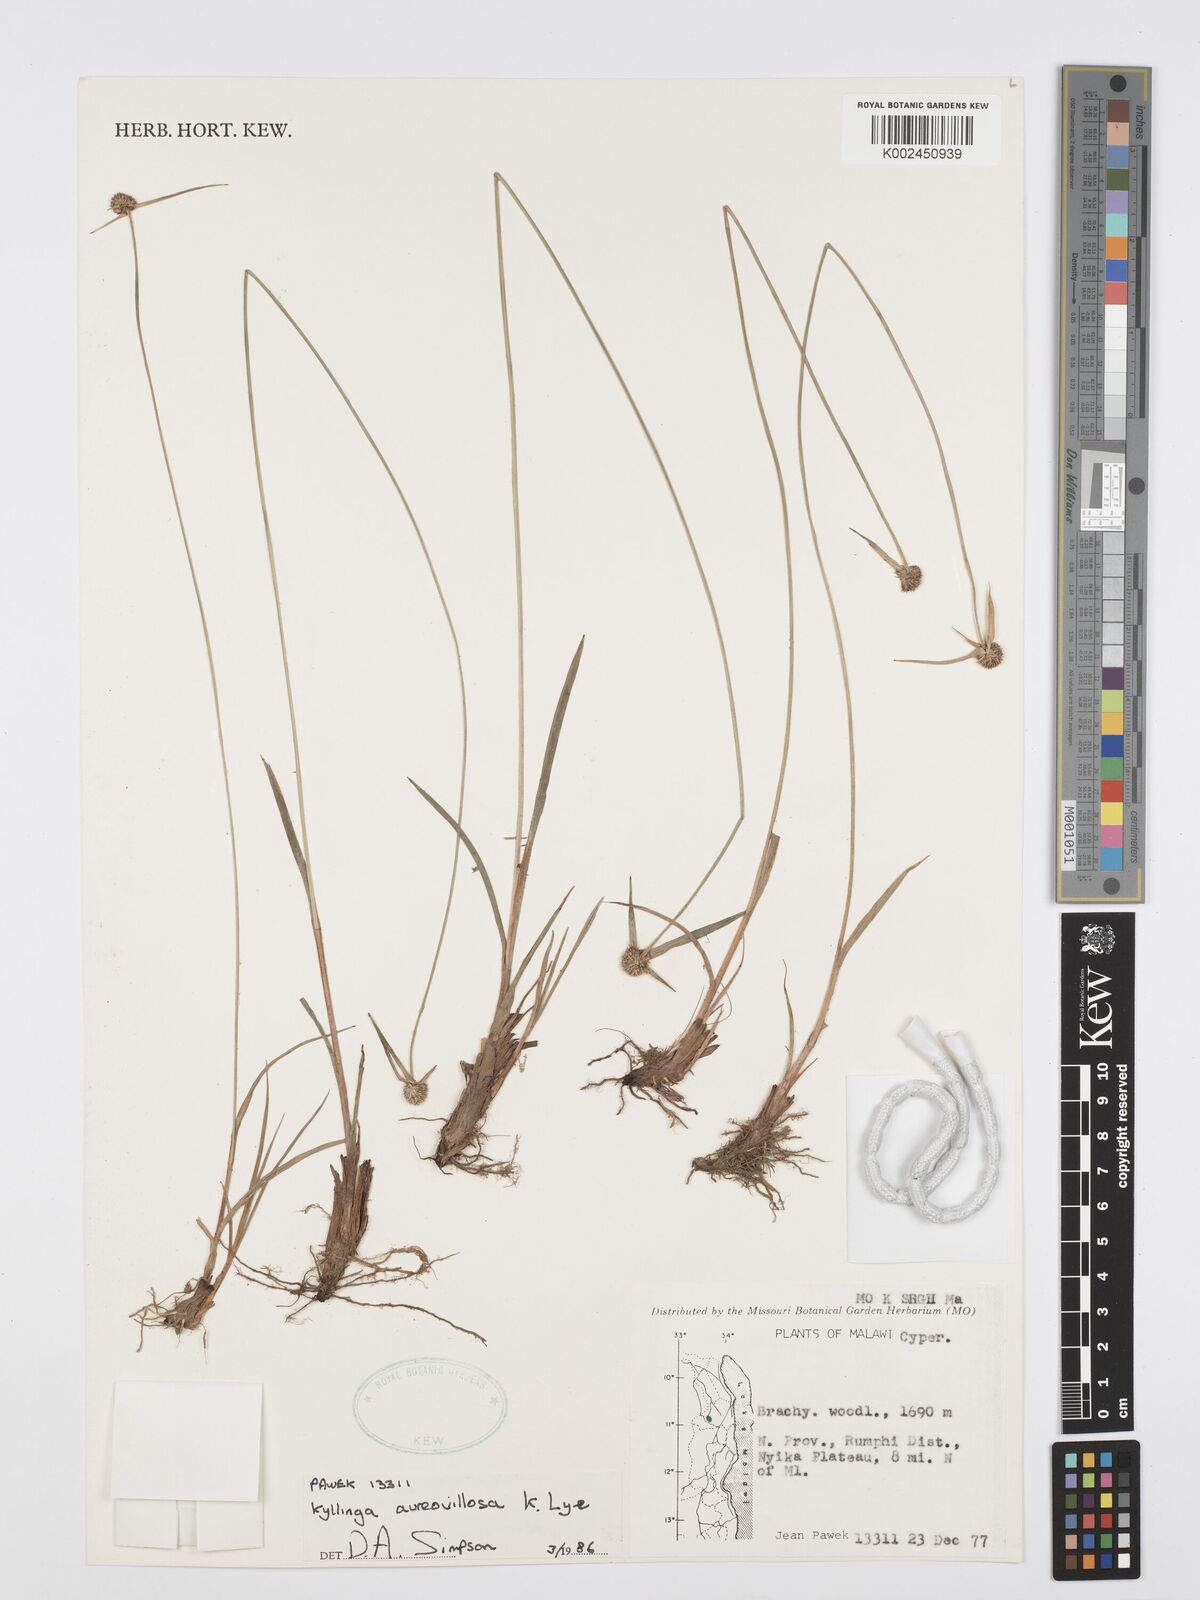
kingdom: Plantae
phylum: Tracheophyta
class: Liliopsida
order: Poales
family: Cyperaceae
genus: Cyperus
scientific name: Cyperus aureovillosus
